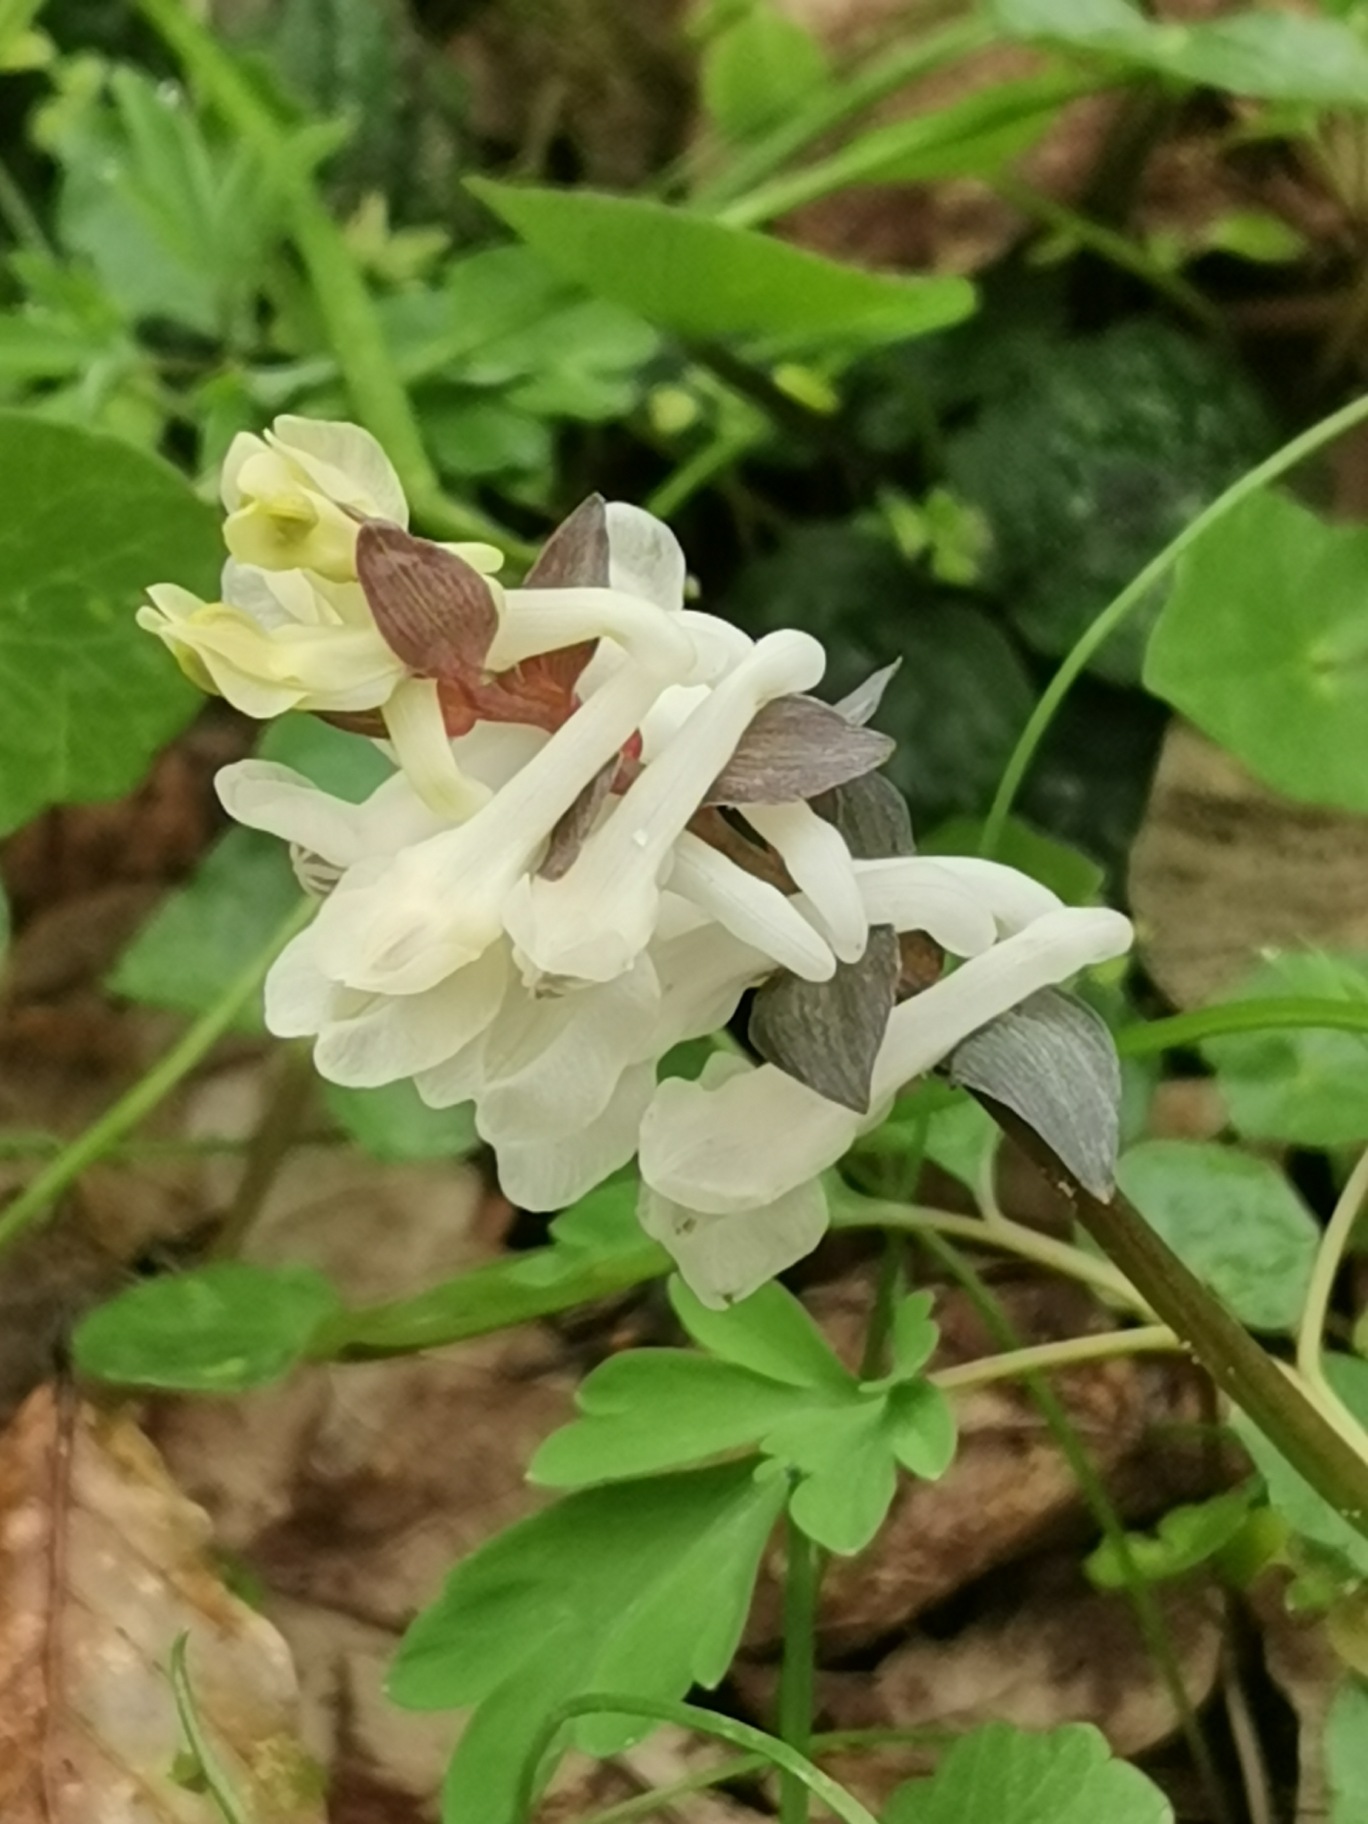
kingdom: Plantae
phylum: Tracheophyta
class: Magnoliopsida
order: Ranunculales
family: Papaveraceae
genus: Corydalis
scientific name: Corydalis cava
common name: Hulrodet lærkespore
